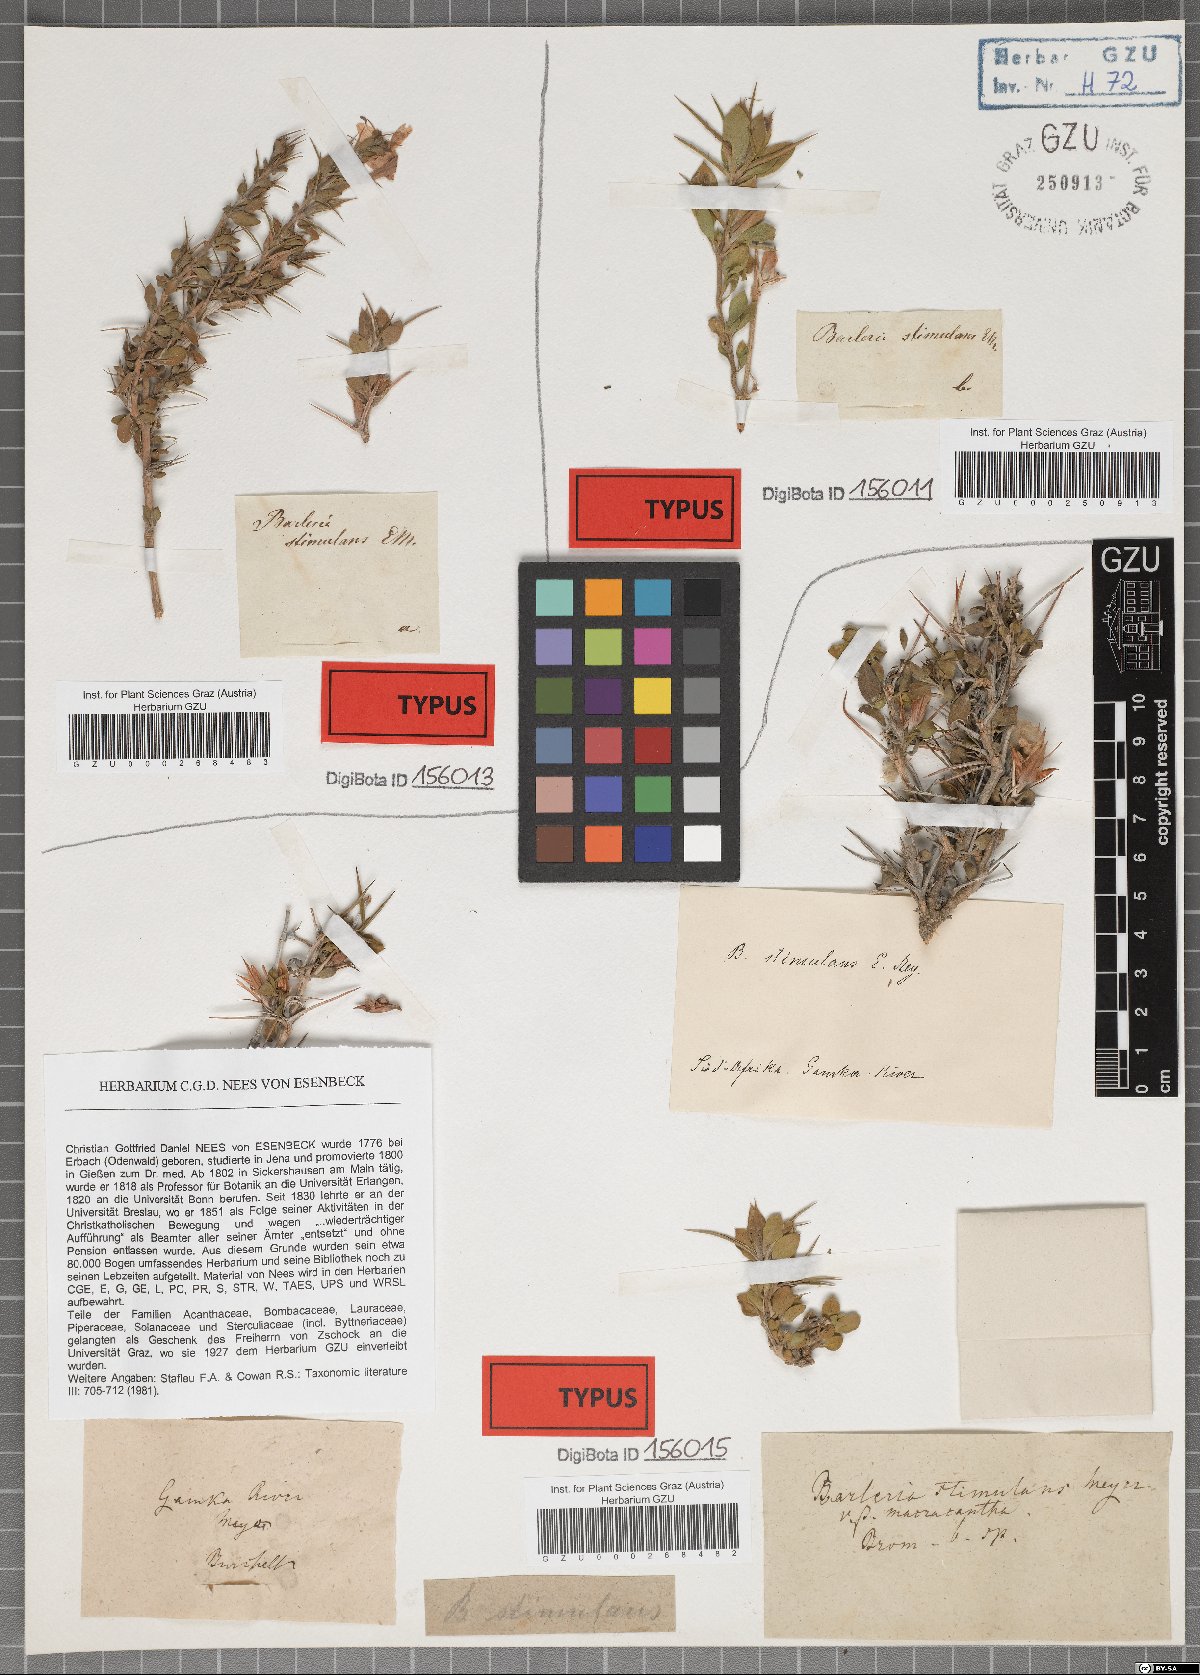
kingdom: Plantae
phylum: Tracheophyta
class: Magnoliopsida
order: Lamiales
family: Acanthaceae
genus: Barleria
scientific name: Barleria rigida
